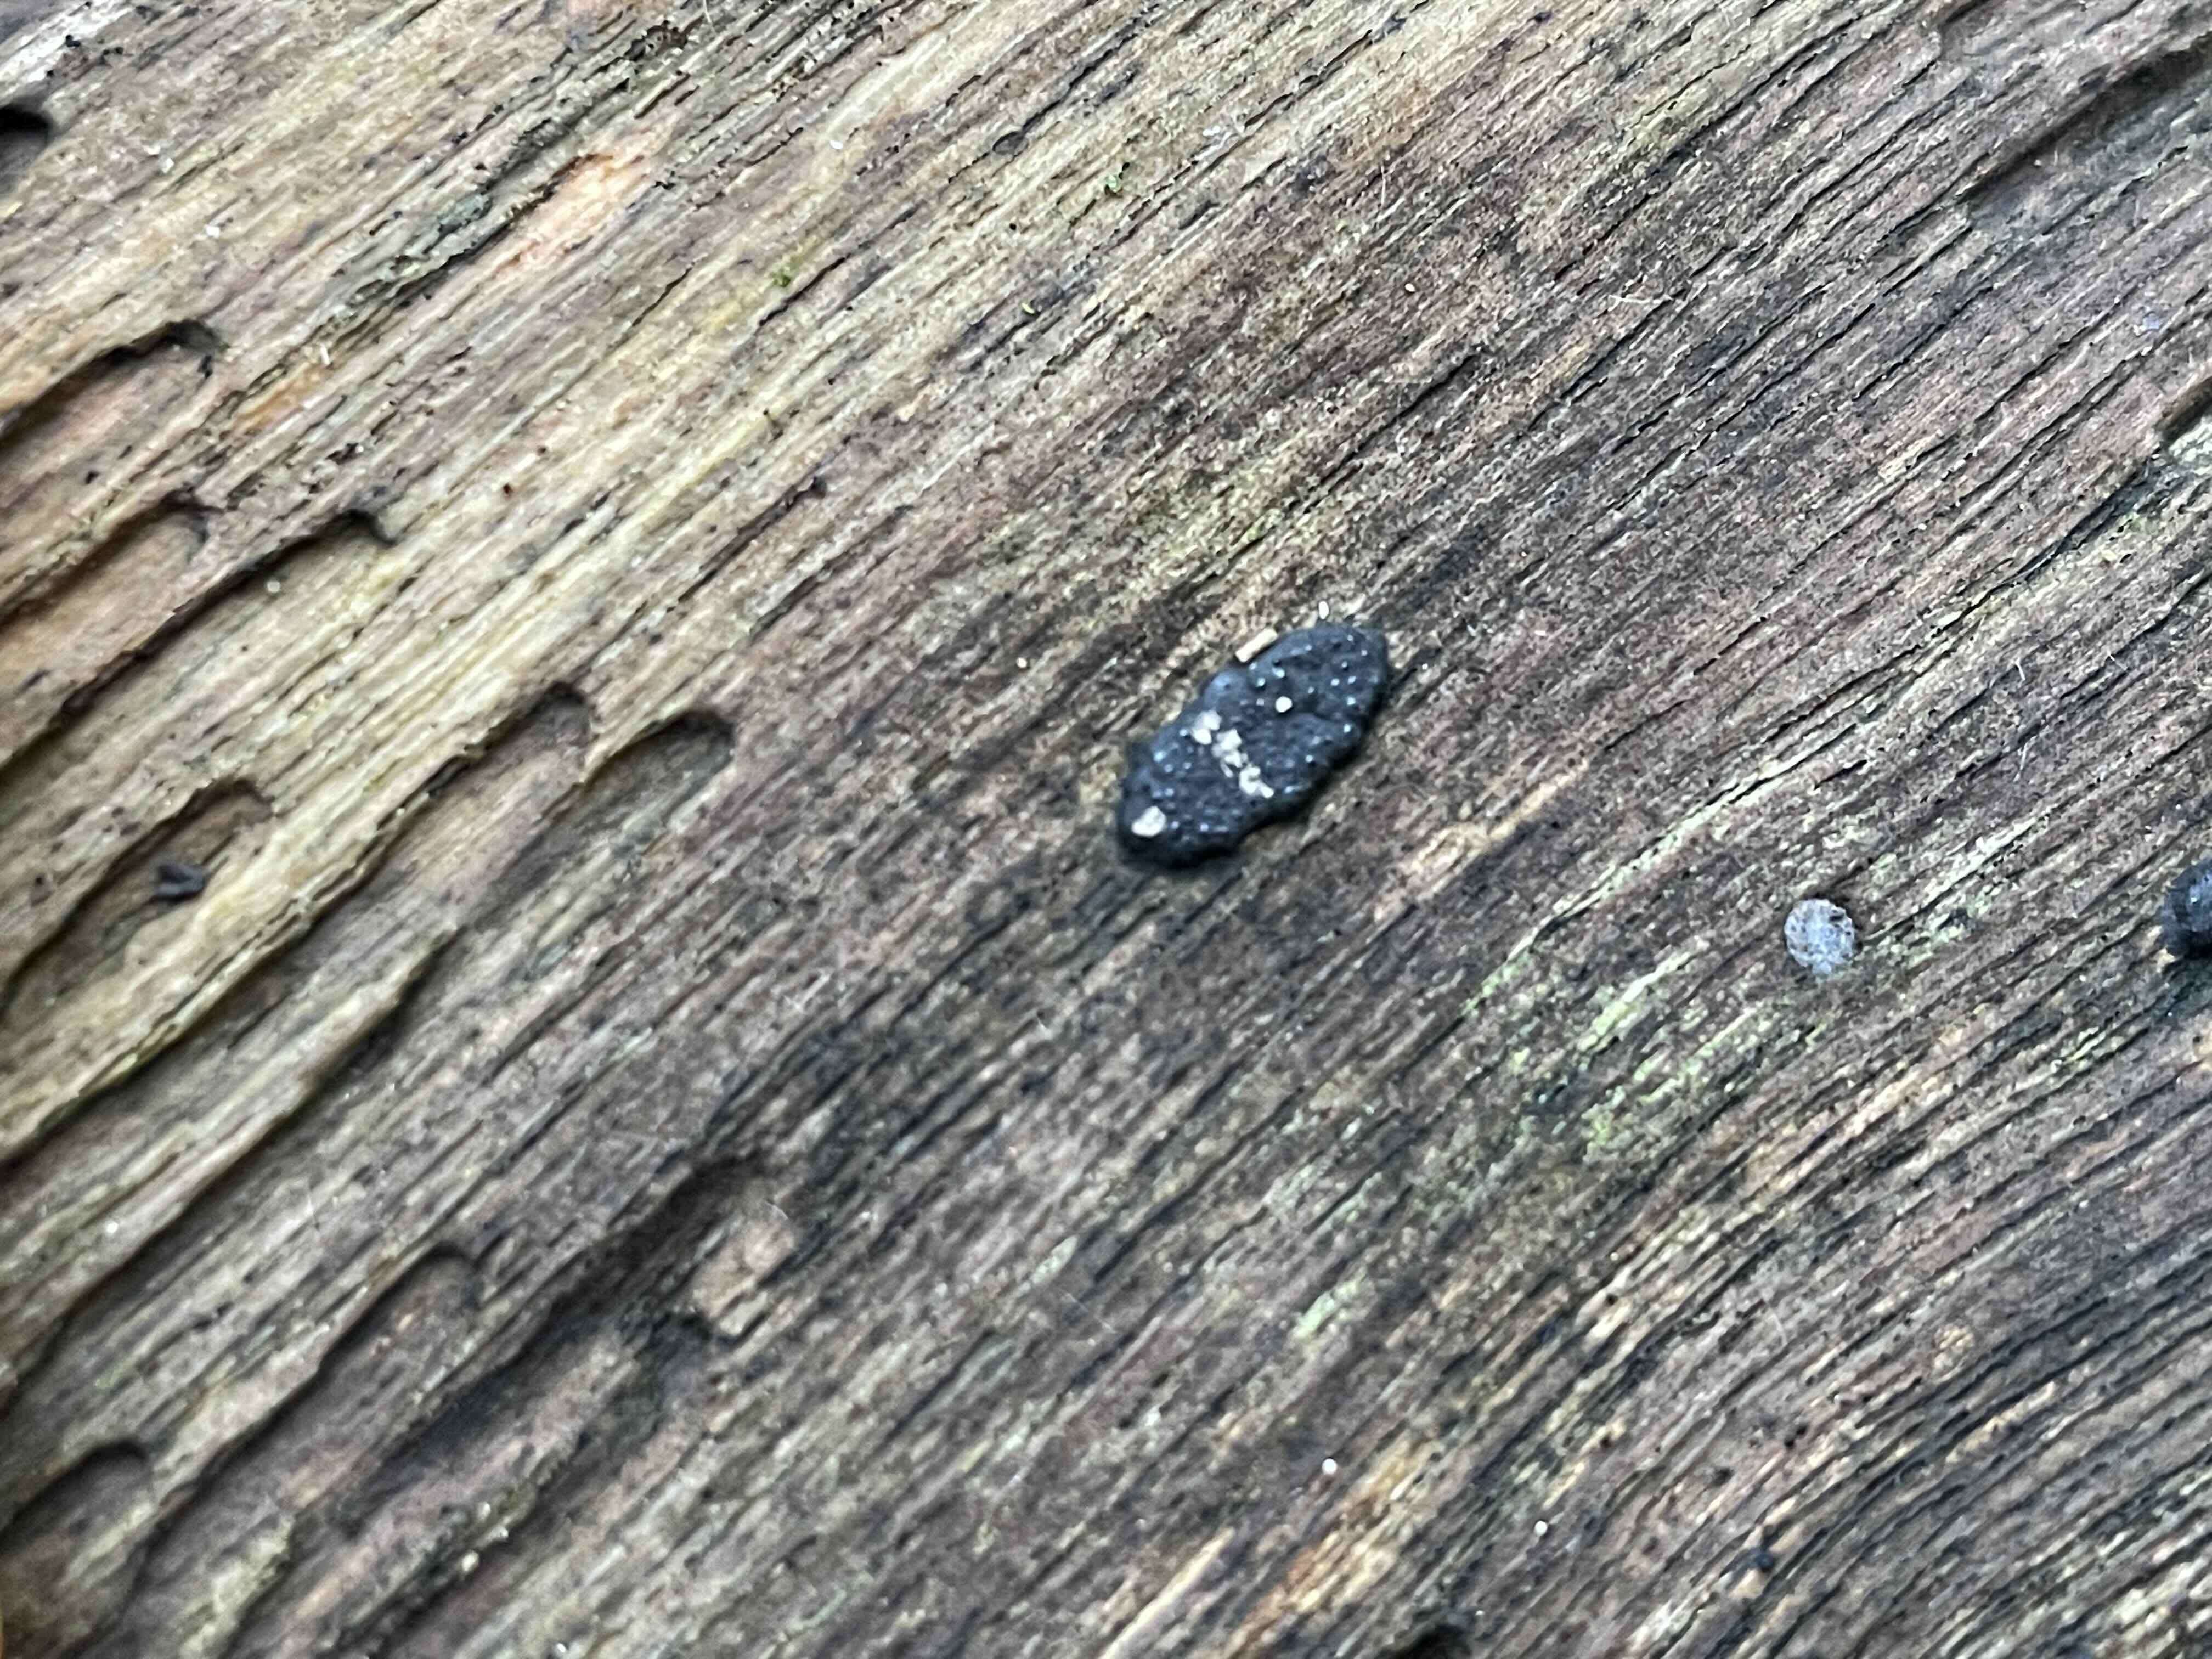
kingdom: Fungi
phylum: Ascomycota
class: Sordariomycetes
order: Xylariales
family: Xylariaceae
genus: Nemania
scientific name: Nemania
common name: kuldyne
